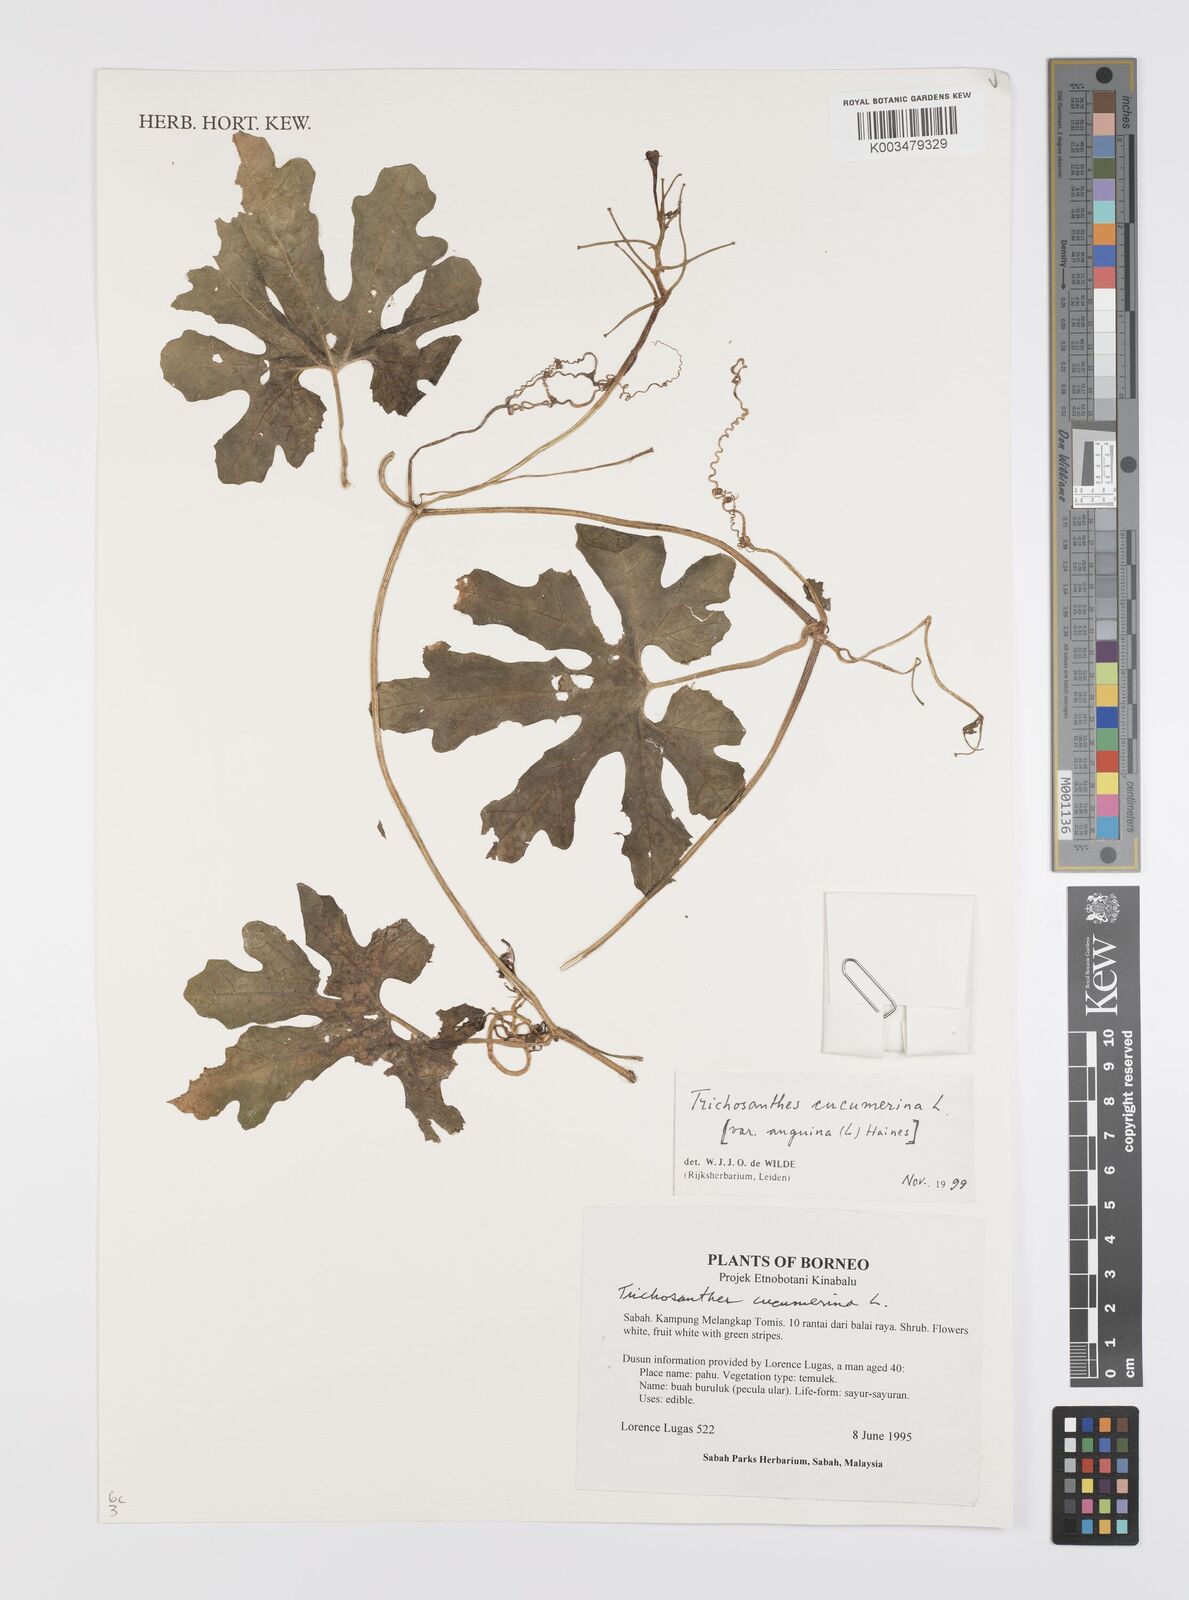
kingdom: Plantae
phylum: Tracheophyta
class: Magnoliopsida
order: Cucurbitales
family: Cucurbitaceae
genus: Trichosanthes
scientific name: Trichosanthes cucumerina
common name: Snakegourd
